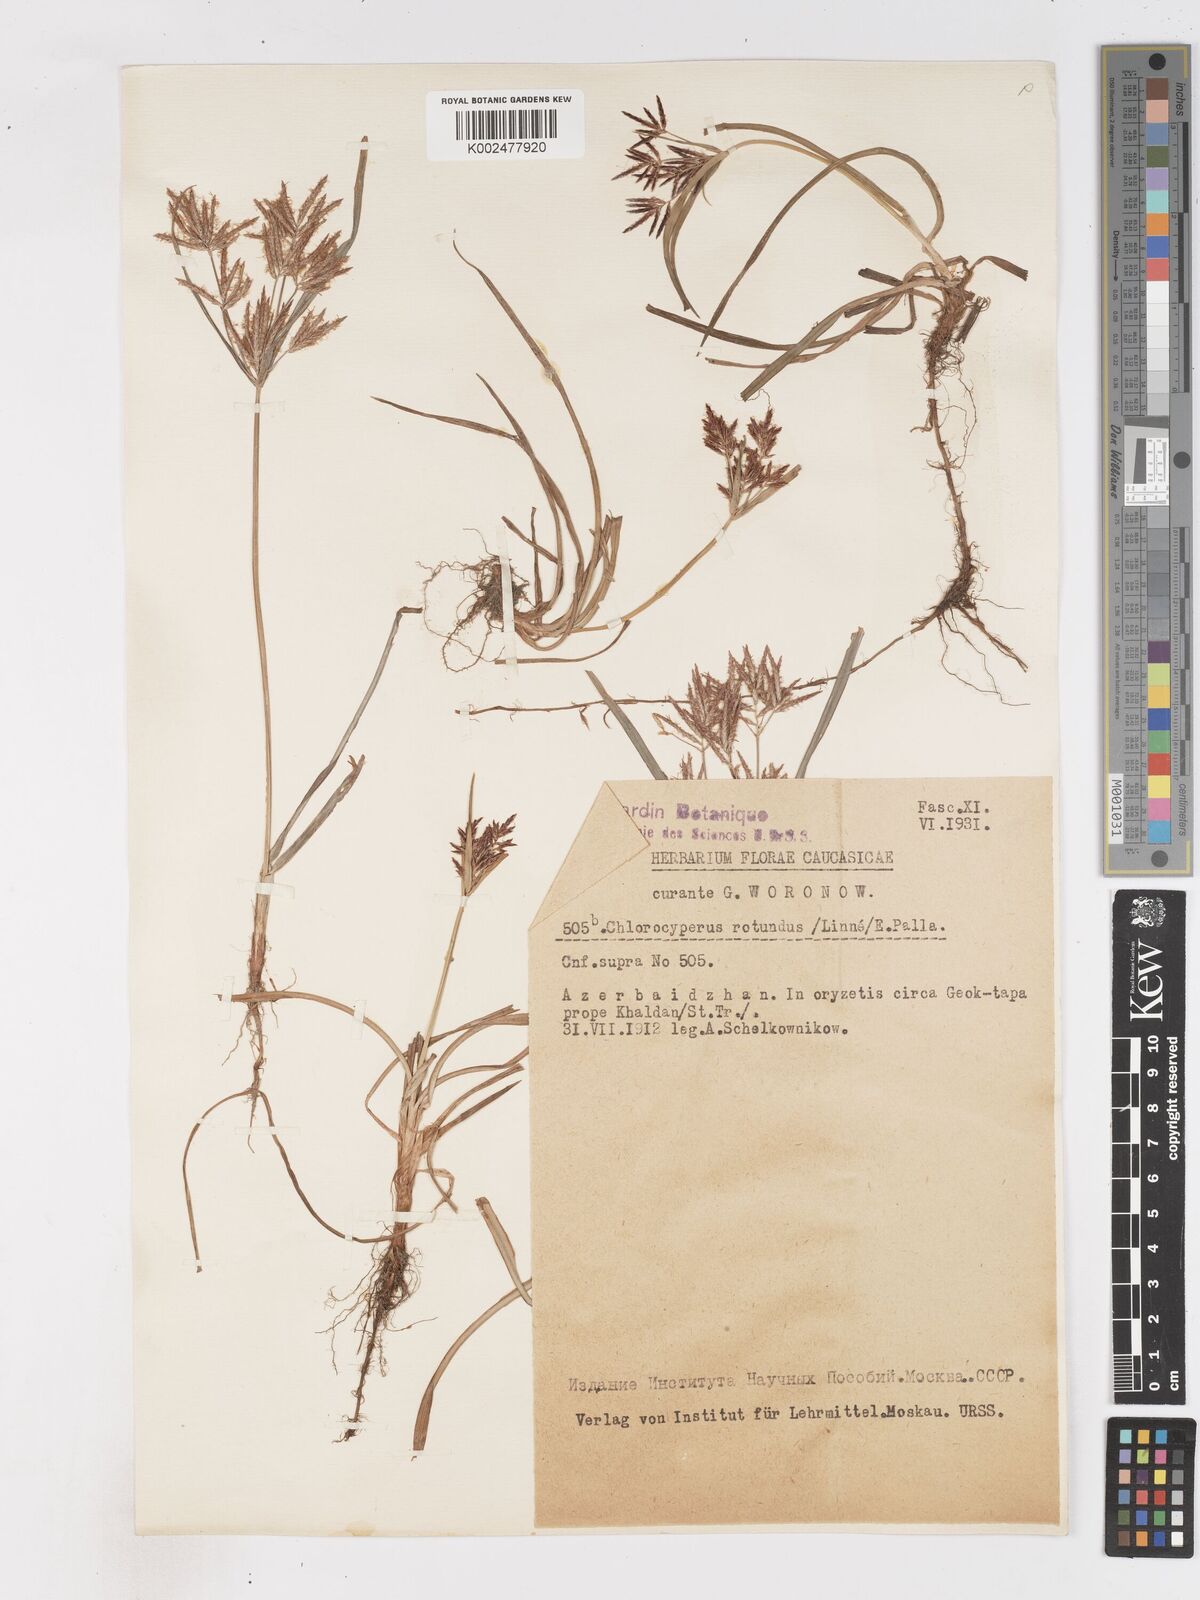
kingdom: Plantae
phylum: Tracheophyta
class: Liliopsida
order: Poales
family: Cyperaceae
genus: Cyperus
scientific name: Cyperus rotundus
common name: Nutgrass
